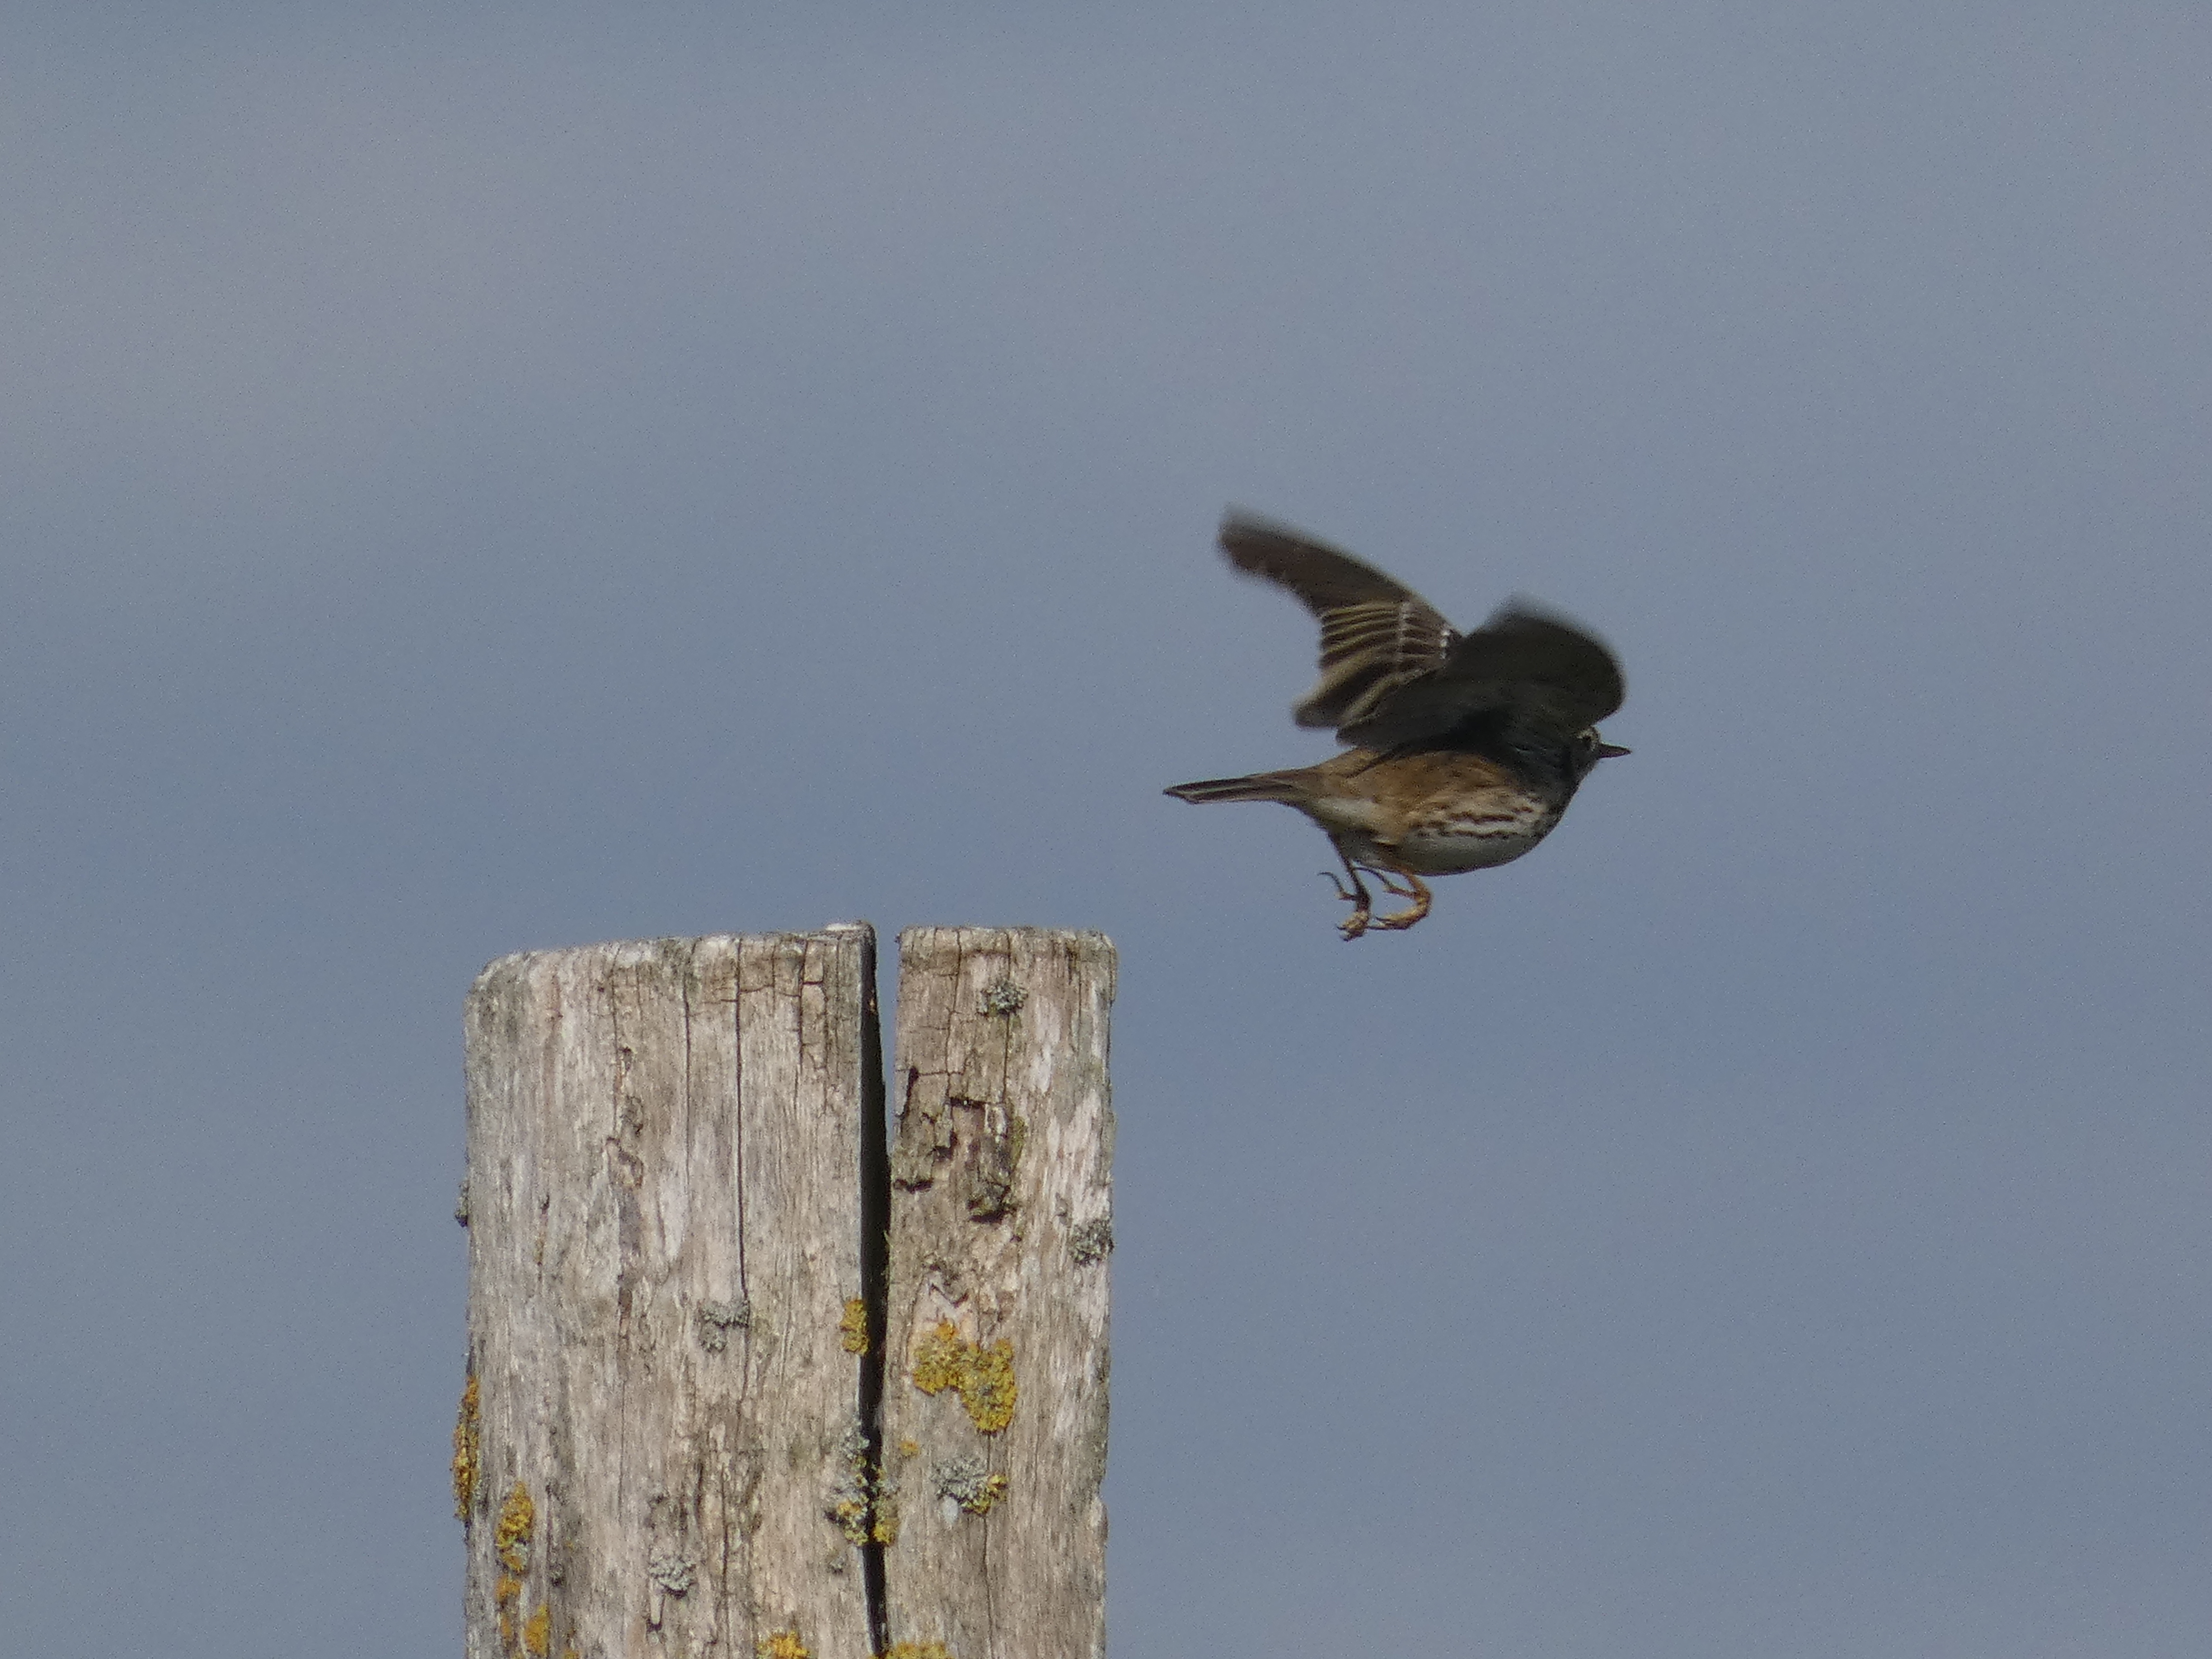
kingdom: Animalia
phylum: Chordata
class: Aves
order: Passeriformes
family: Motacillidae
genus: Anthus
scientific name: Anthus pratensis
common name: Engpiber
